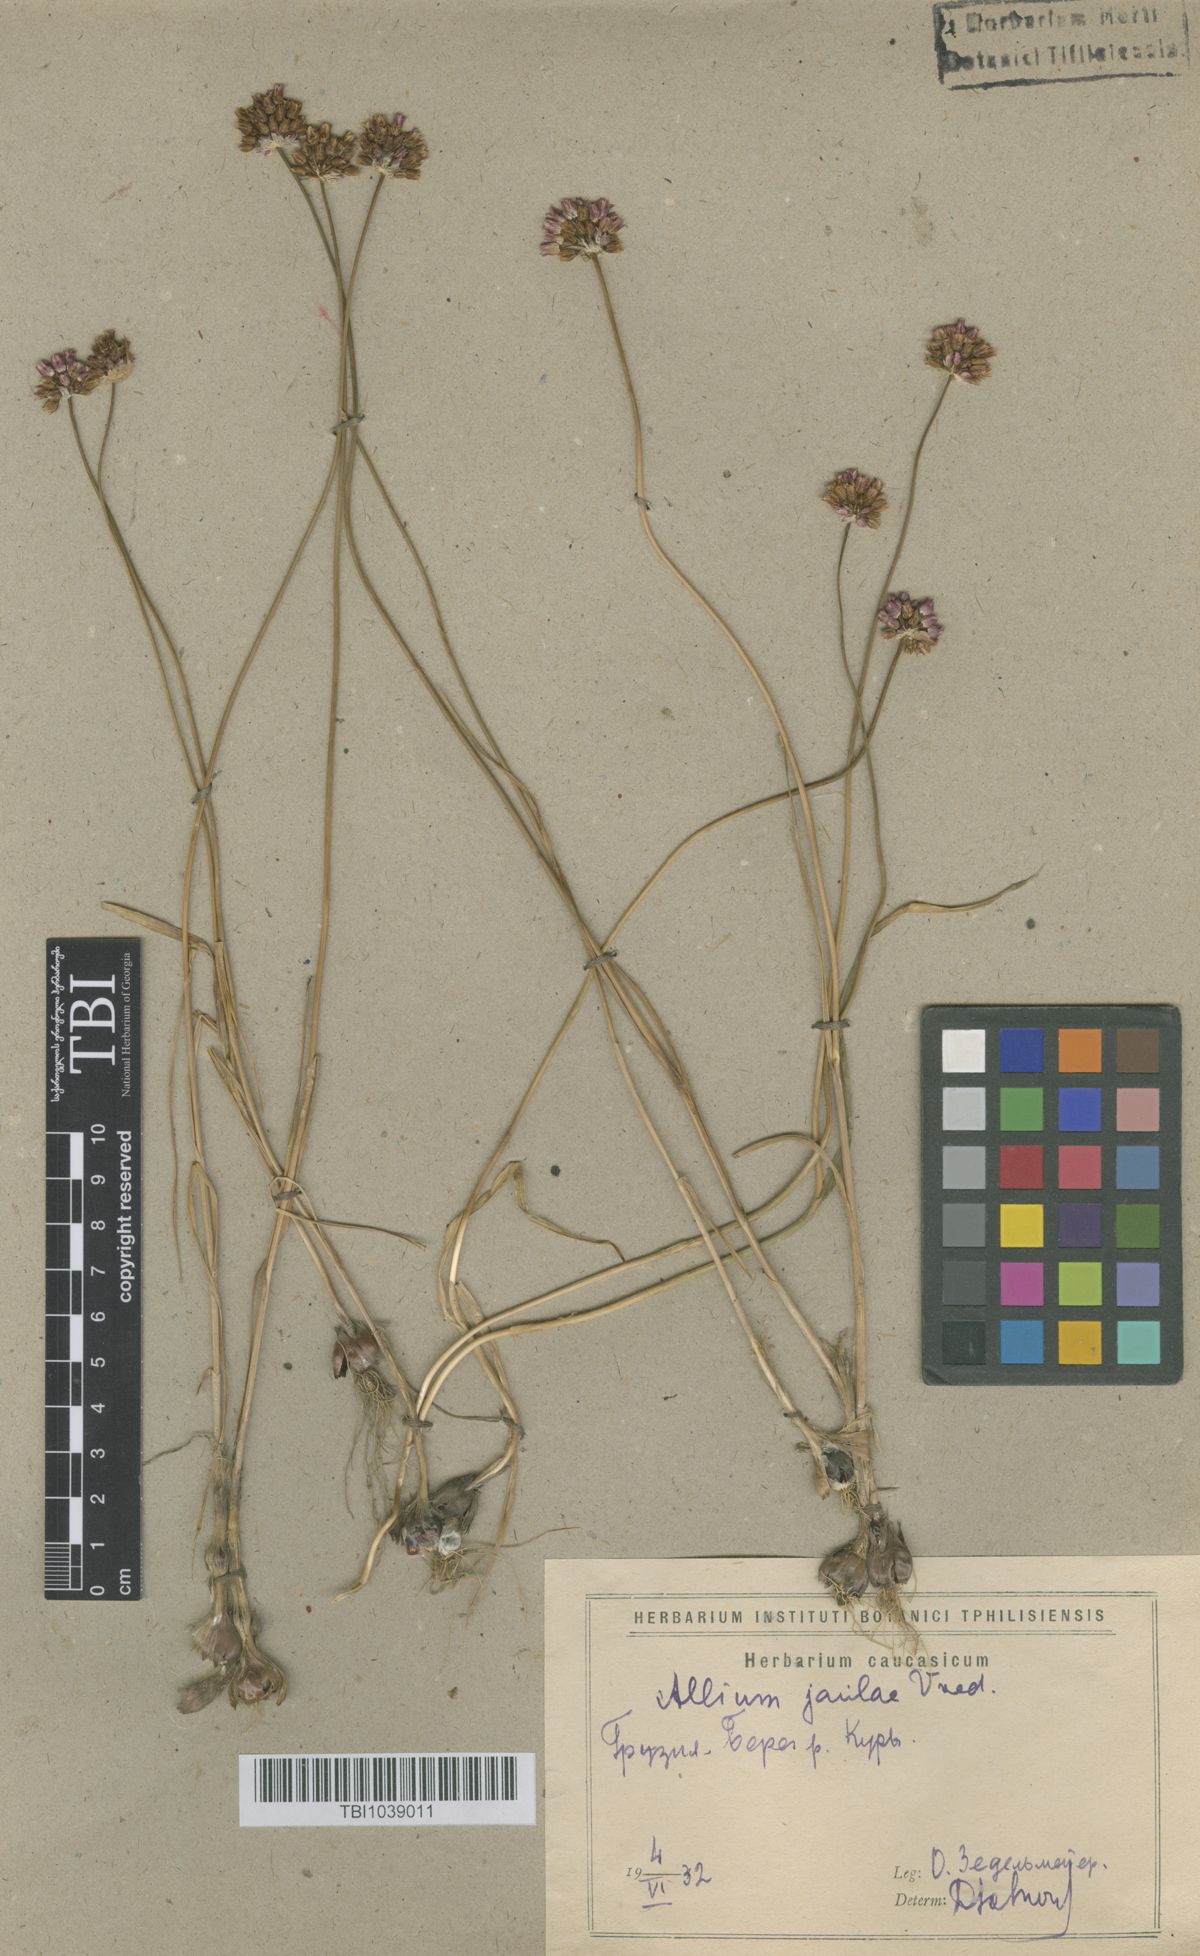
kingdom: Plantae
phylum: Tracheophyta
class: Liliopsida
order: Asparagales
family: Amaryllidaceae
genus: Allium
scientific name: Allium rotundum
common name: Sand leek
